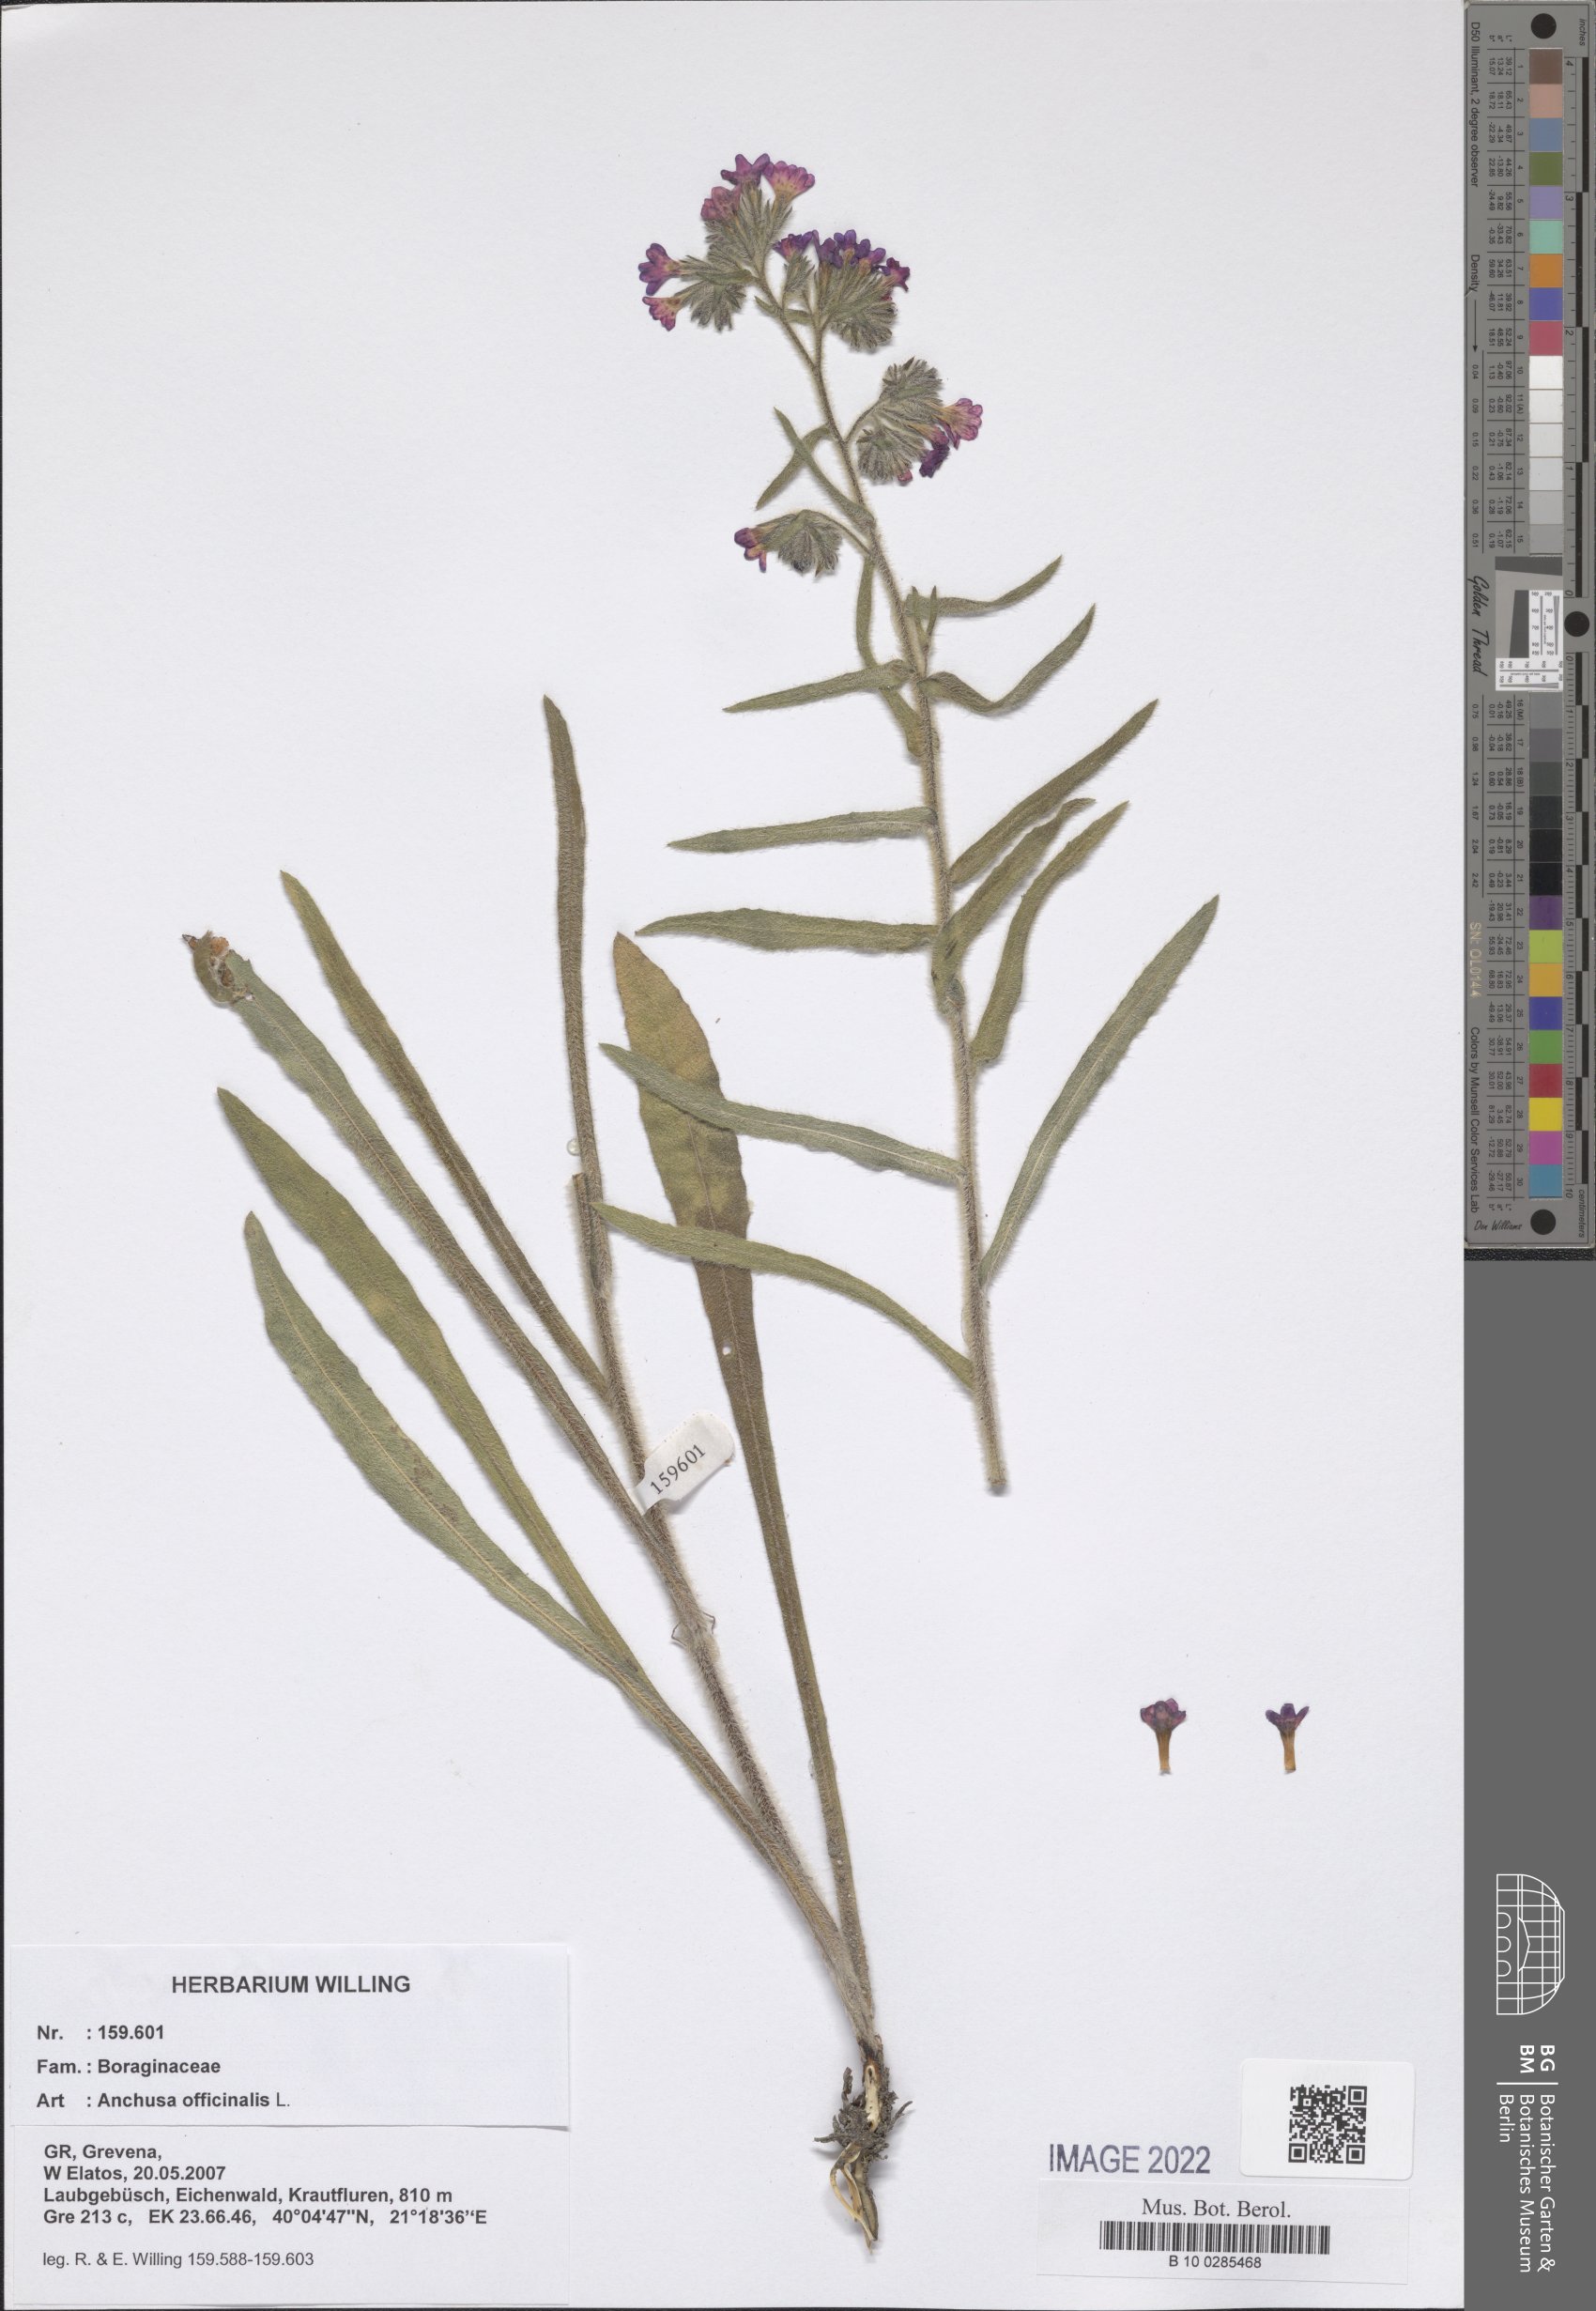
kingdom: Plantae
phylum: Tracheophyta
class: Magnoliopsida
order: Boraginales
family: Boraginaceae
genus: Anchusa
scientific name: Anchusa officinalis
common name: Alkanet
